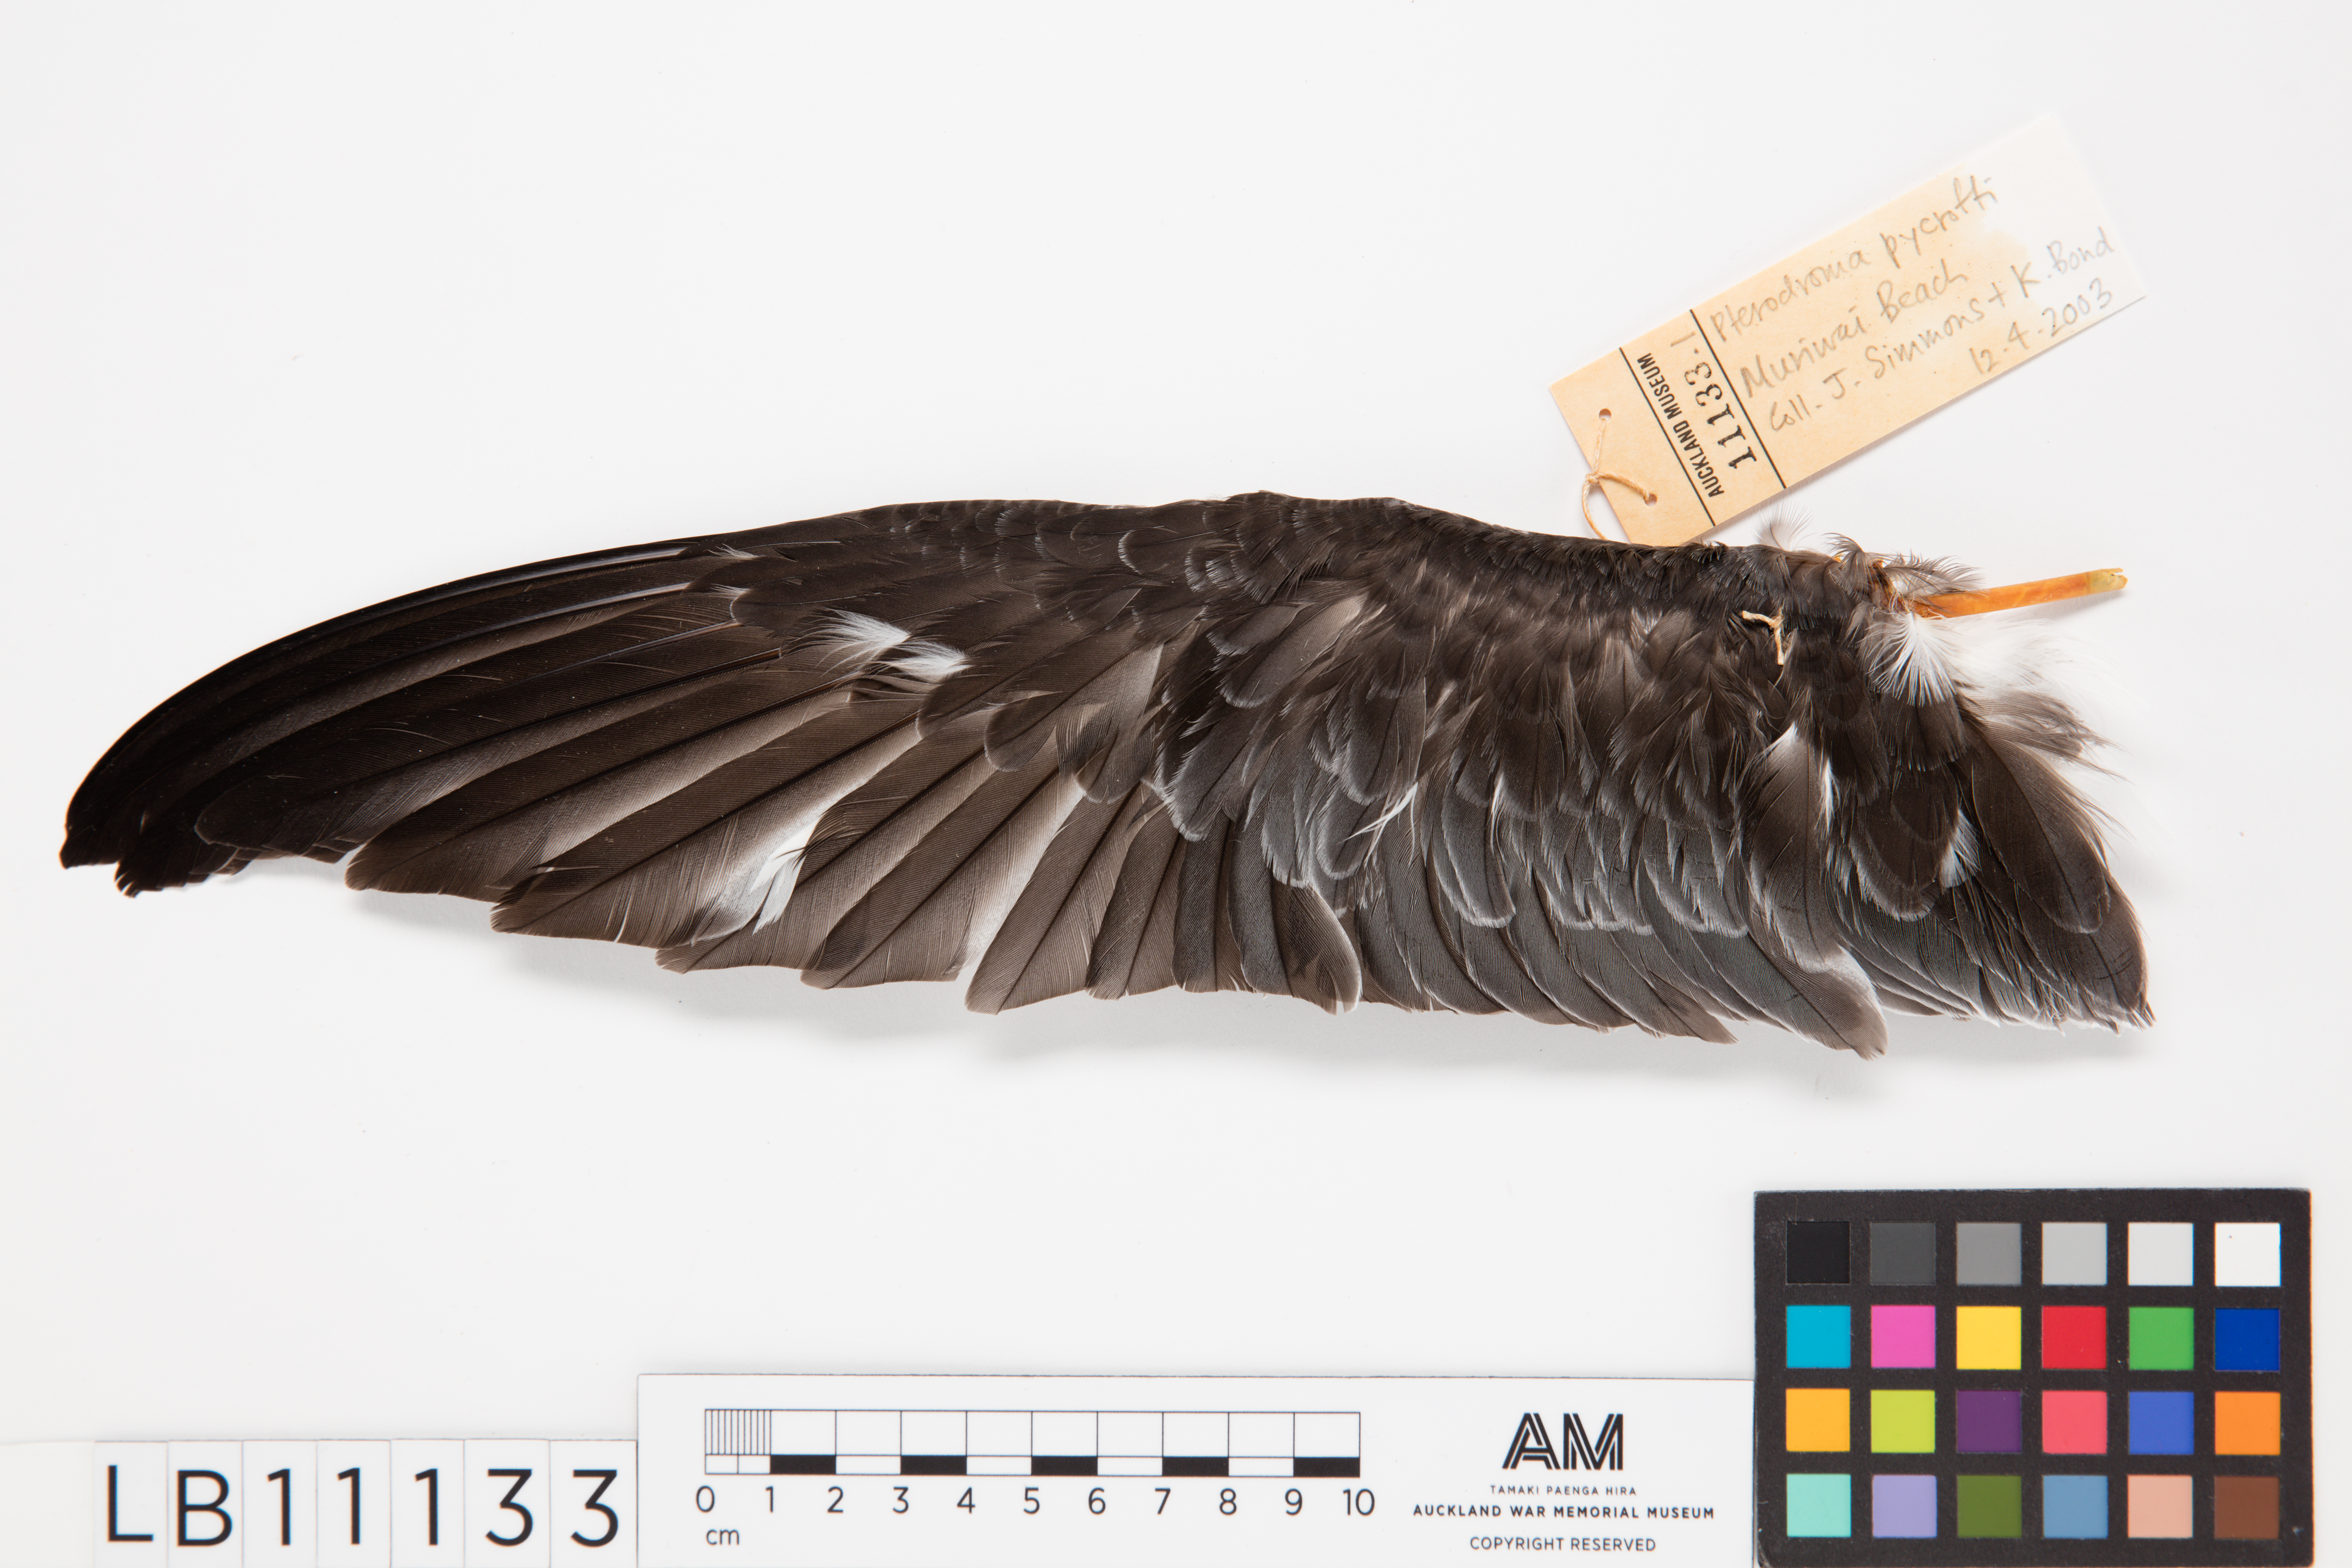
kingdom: Animalia
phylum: Chordata
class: Aves
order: Procellariiformes
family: Procellariidae
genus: Pterodroma
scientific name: Pterodroma pycrofti
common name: Pycroft's petrel
